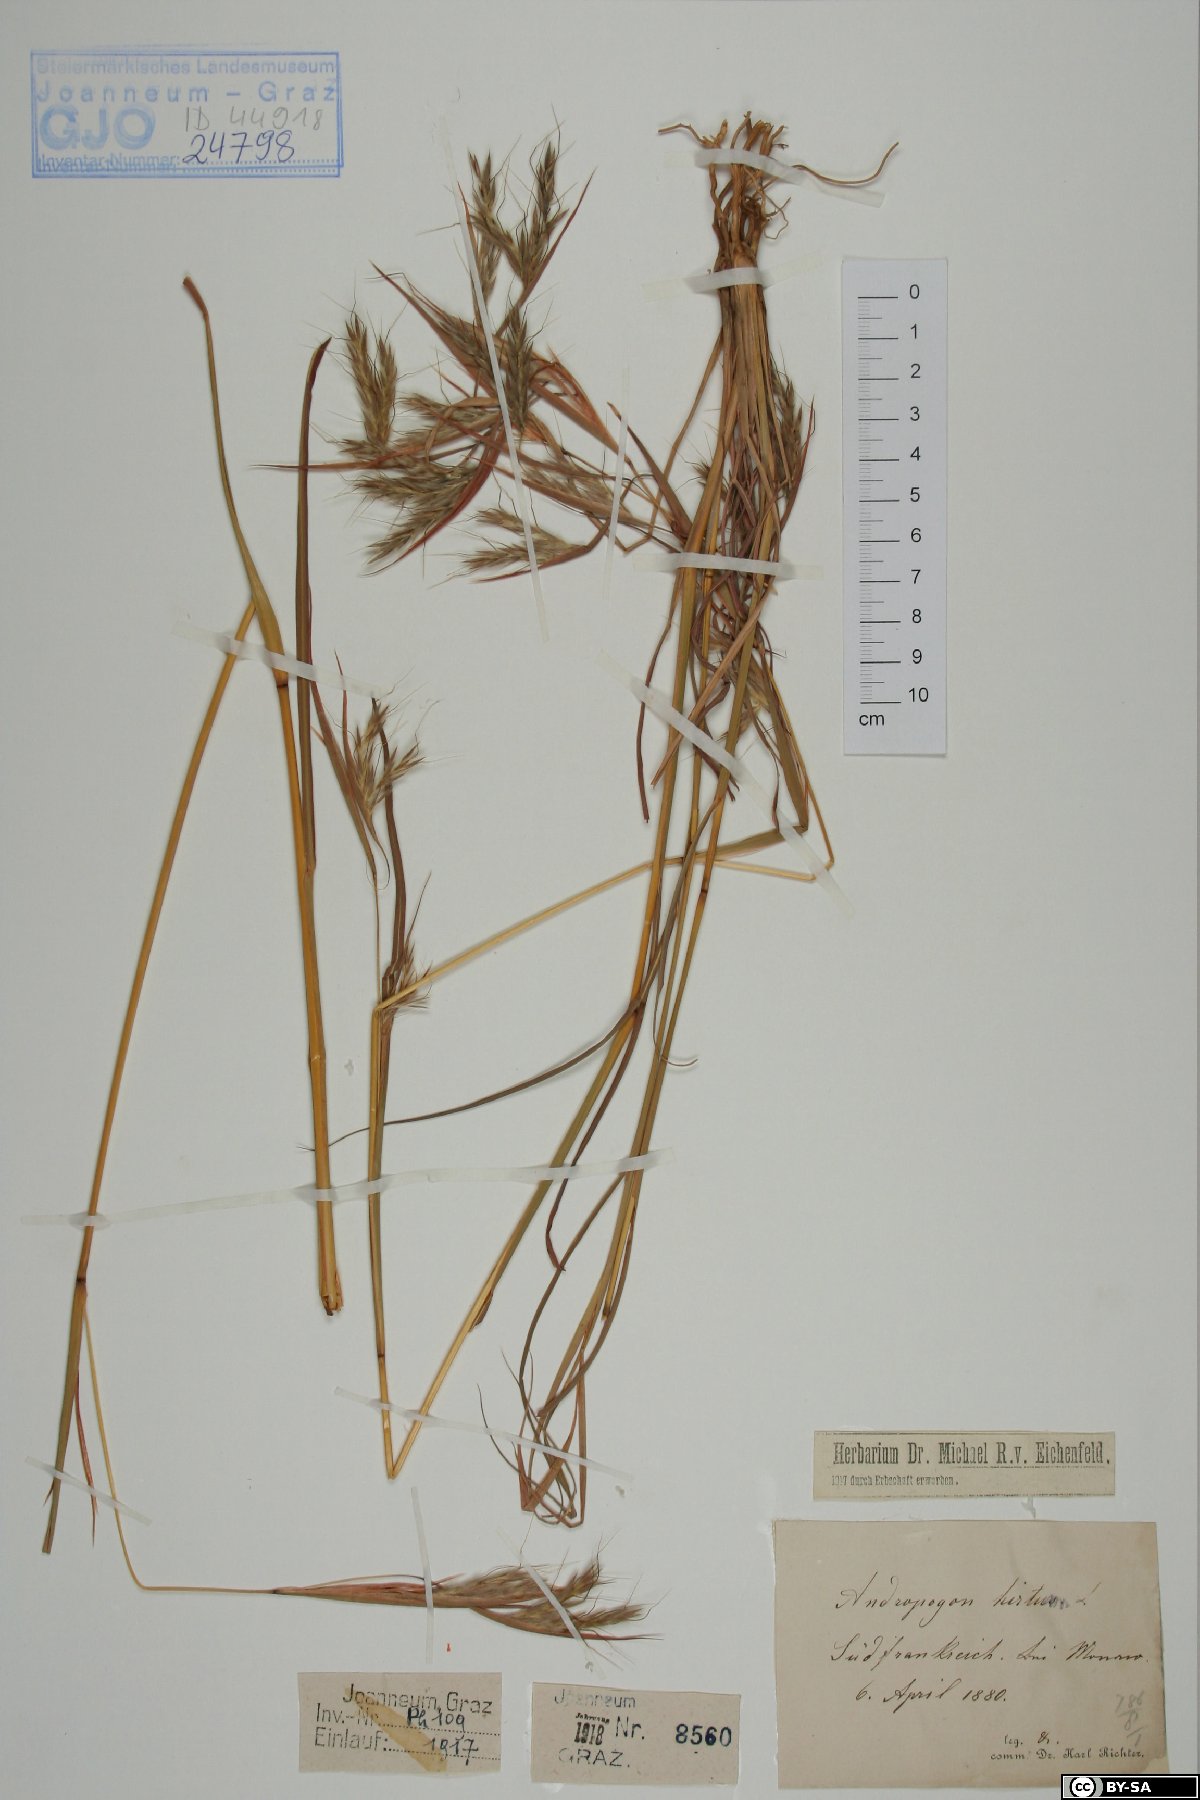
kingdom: Plantae
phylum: Tracheophyta
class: Liliopsida
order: Poales
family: Poaceae
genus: Hyparrhenia
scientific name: Hyparrhenia hirta
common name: Thatching grass
